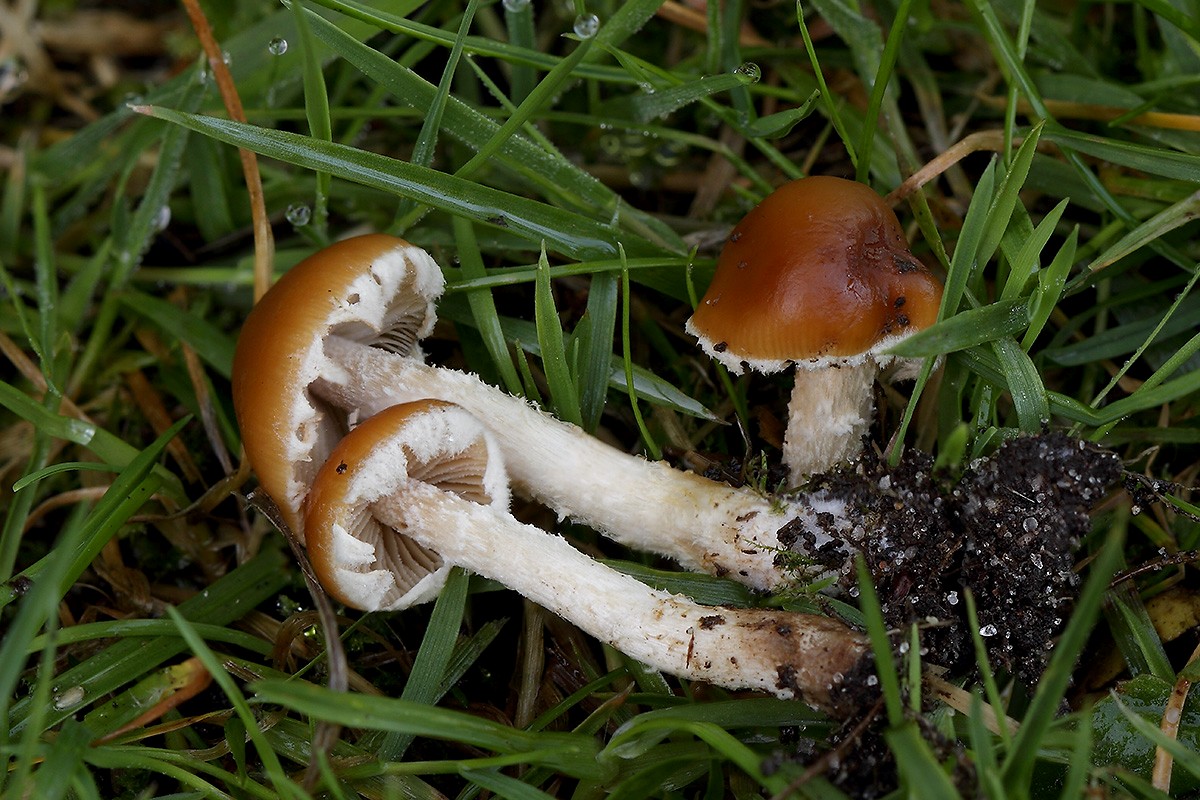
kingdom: Fungi
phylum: Basidiomycota
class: Agaricomycetes
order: Agaricales
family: Bolbitiaceae
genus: Conocybe
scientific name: Conocybe vestita
